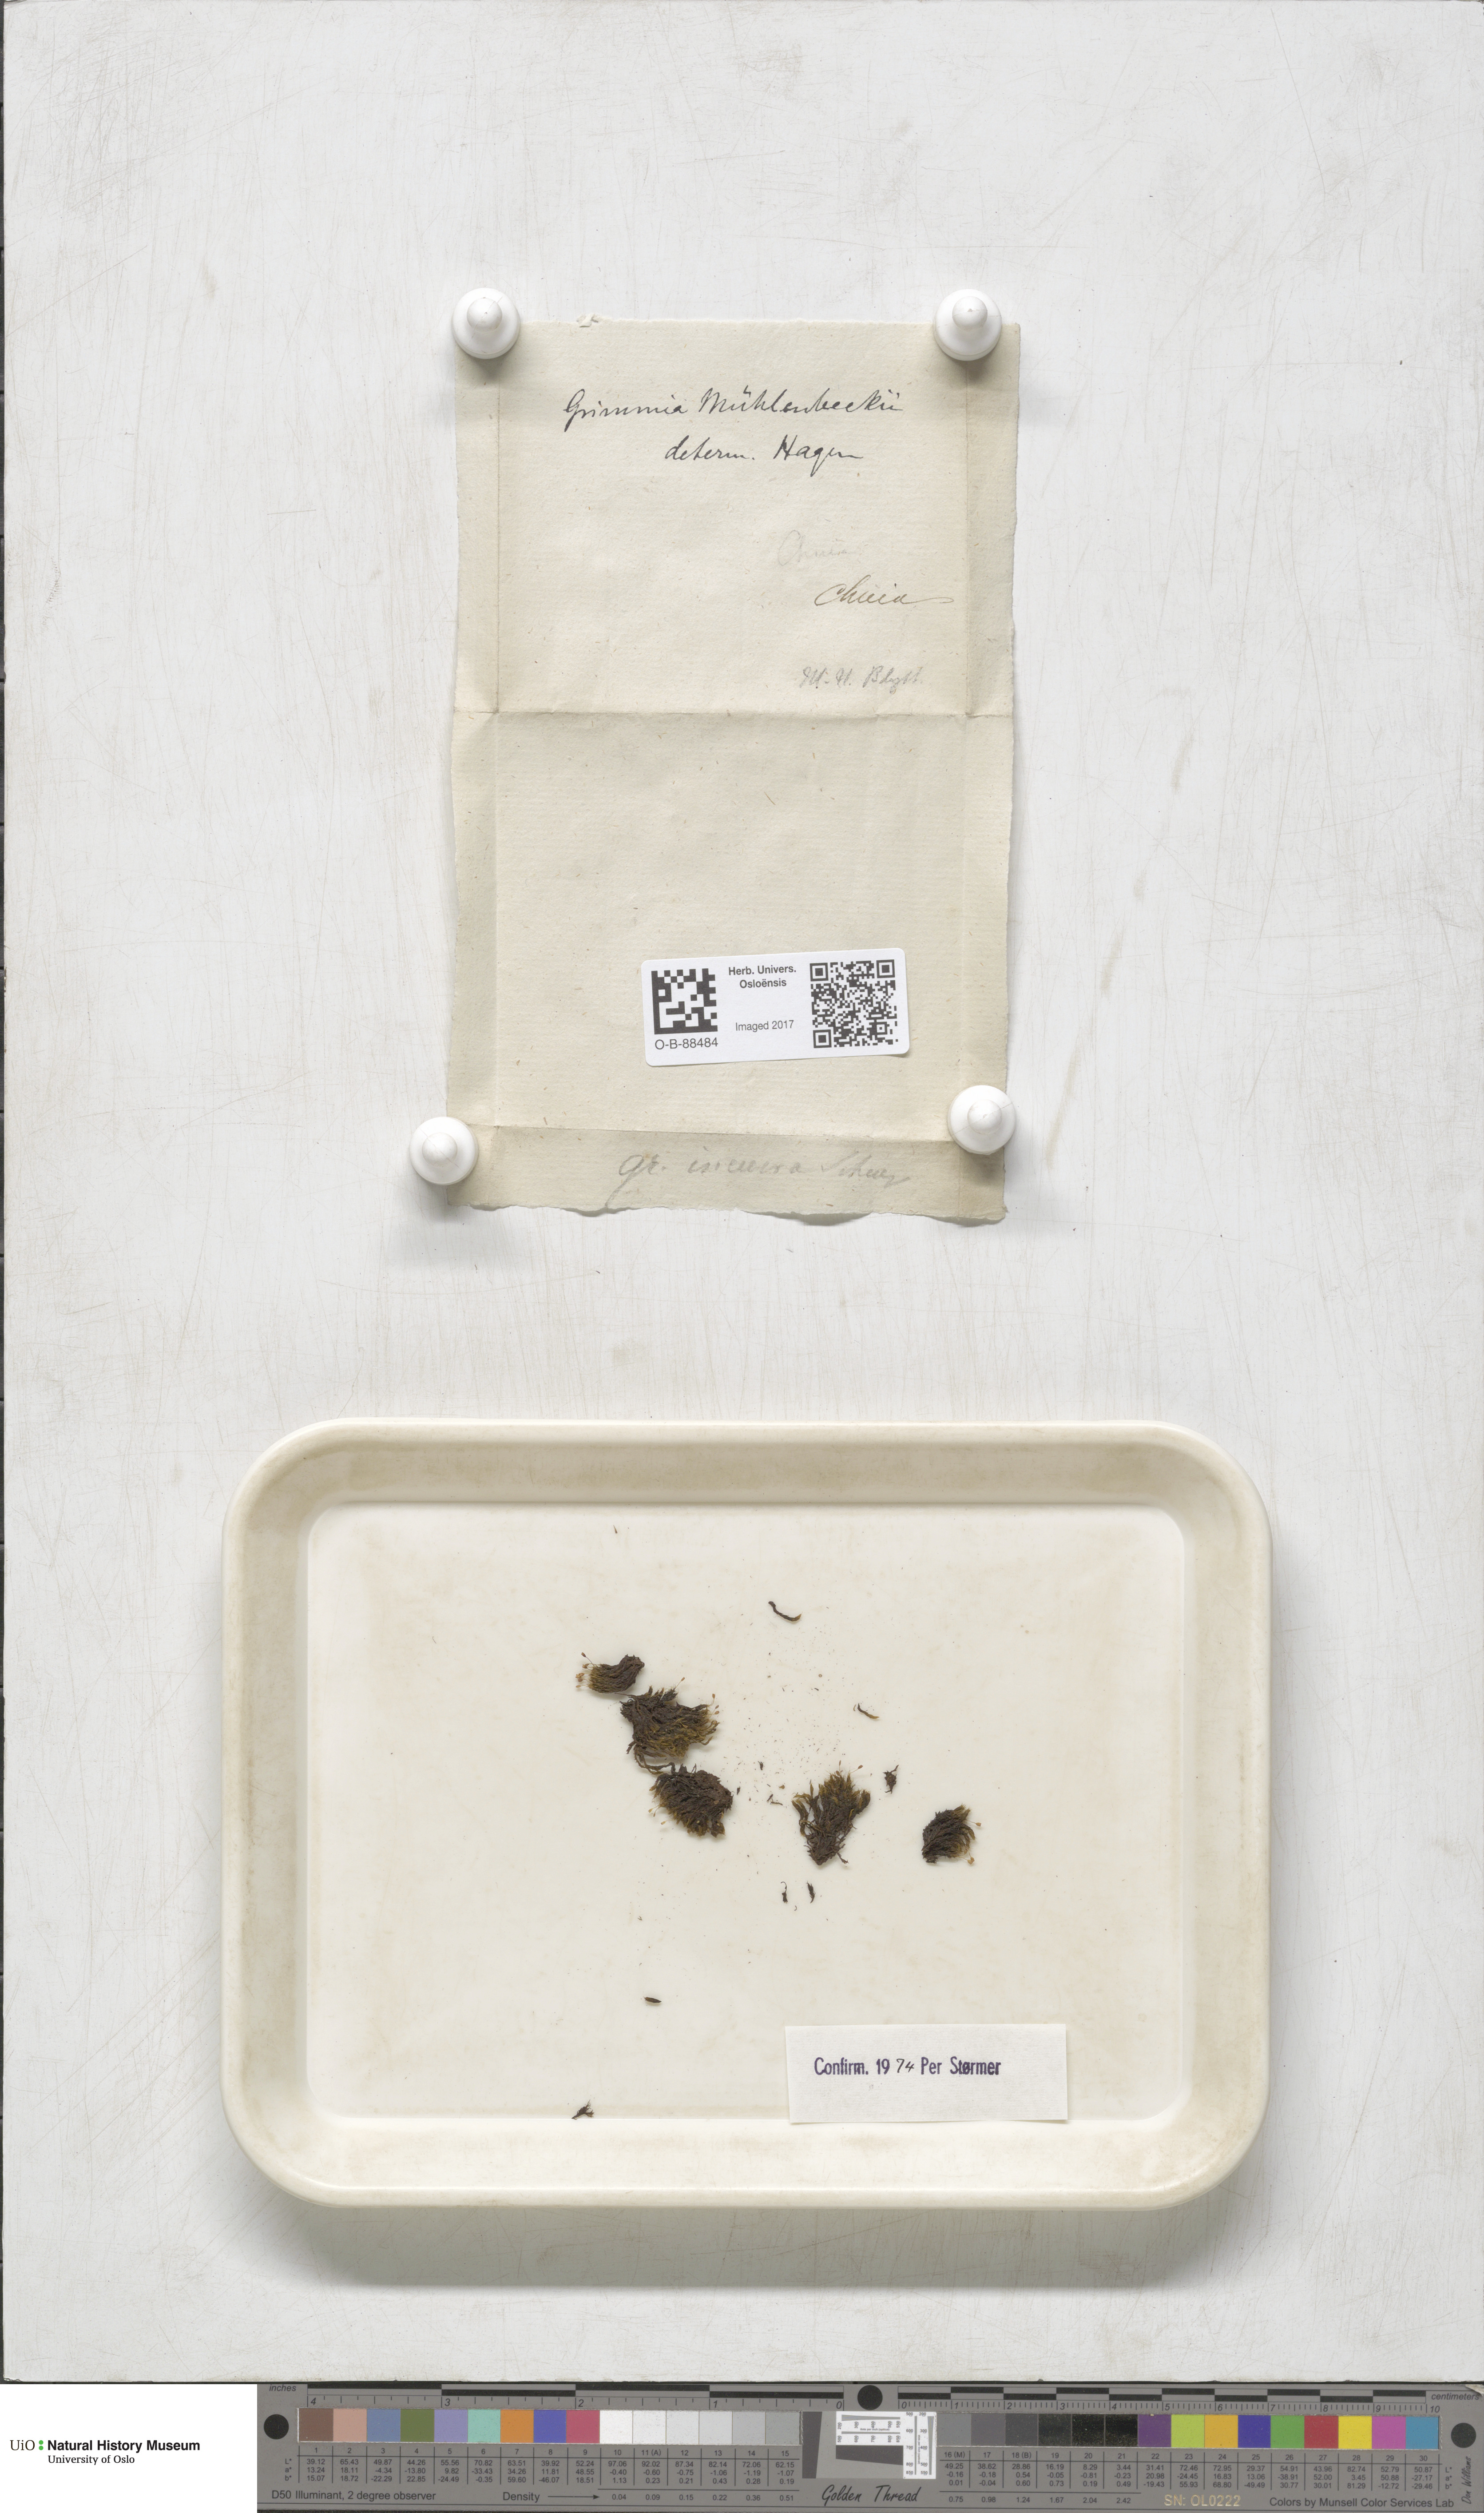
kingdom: Plantae
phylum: Bryophyta
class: Bryopsida
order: Grimmiales
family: Grimmiaceae
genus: Grimmia
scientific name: Grimmia trichophylla
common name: Hair-pointed grimmia
